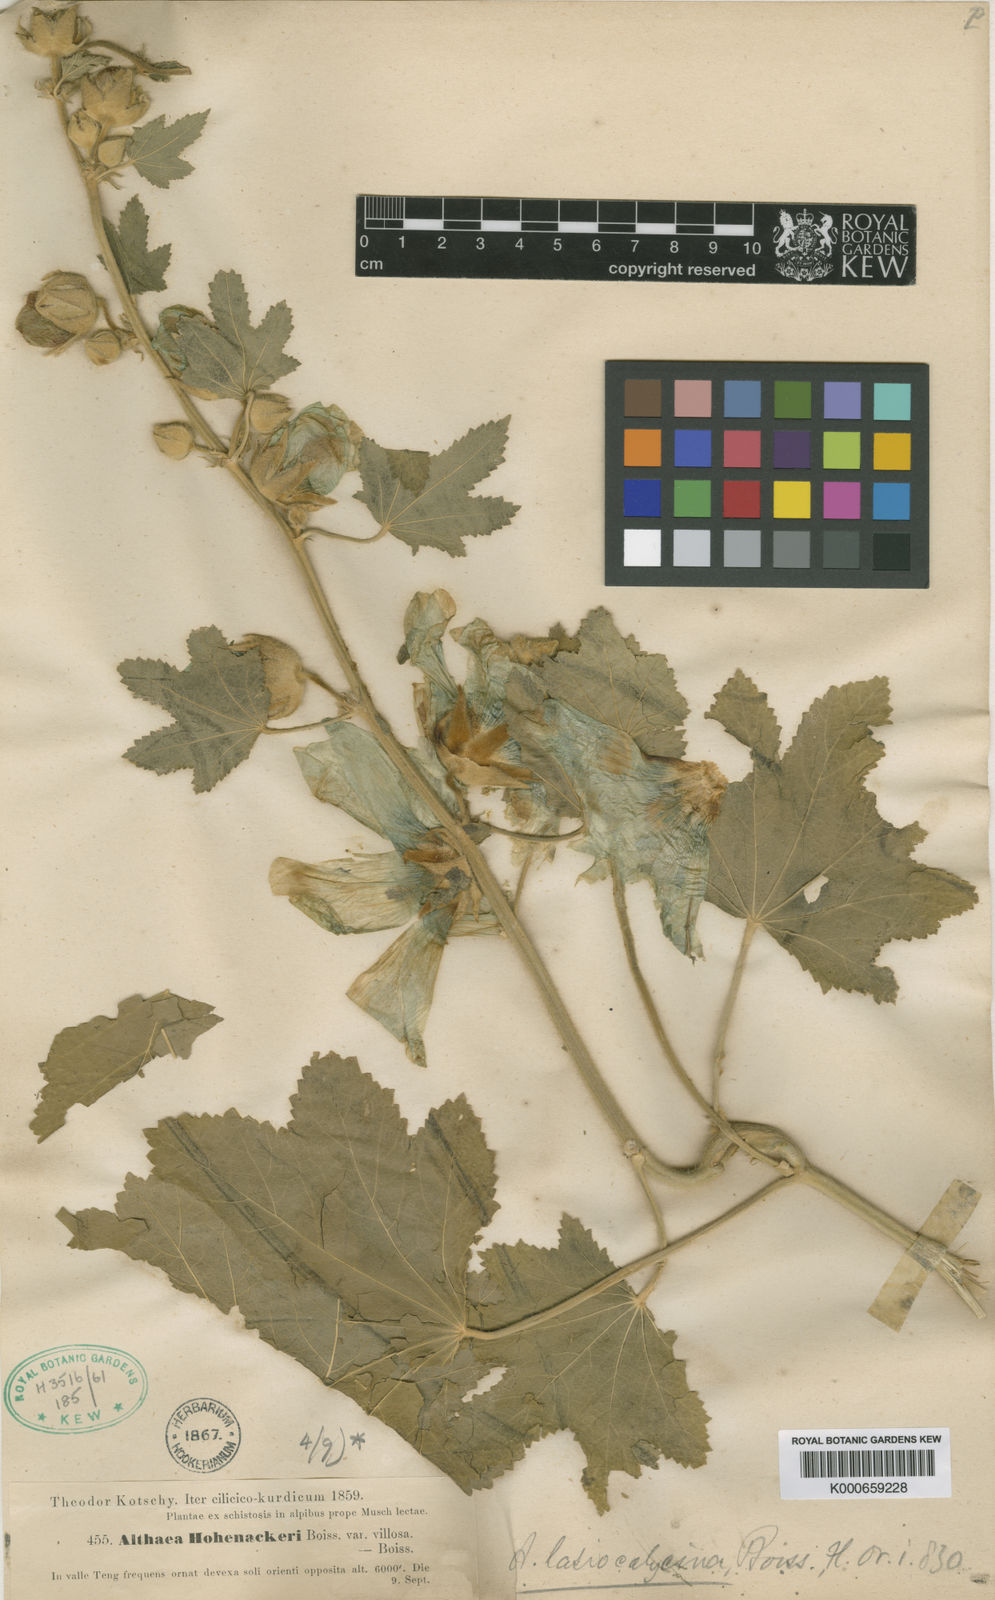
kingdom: Plantae
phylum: Tracheophyta
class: Magnoliopsida
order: Malvales
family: Malvaceae
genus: Alcea
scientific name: Alcea apterocarpa
